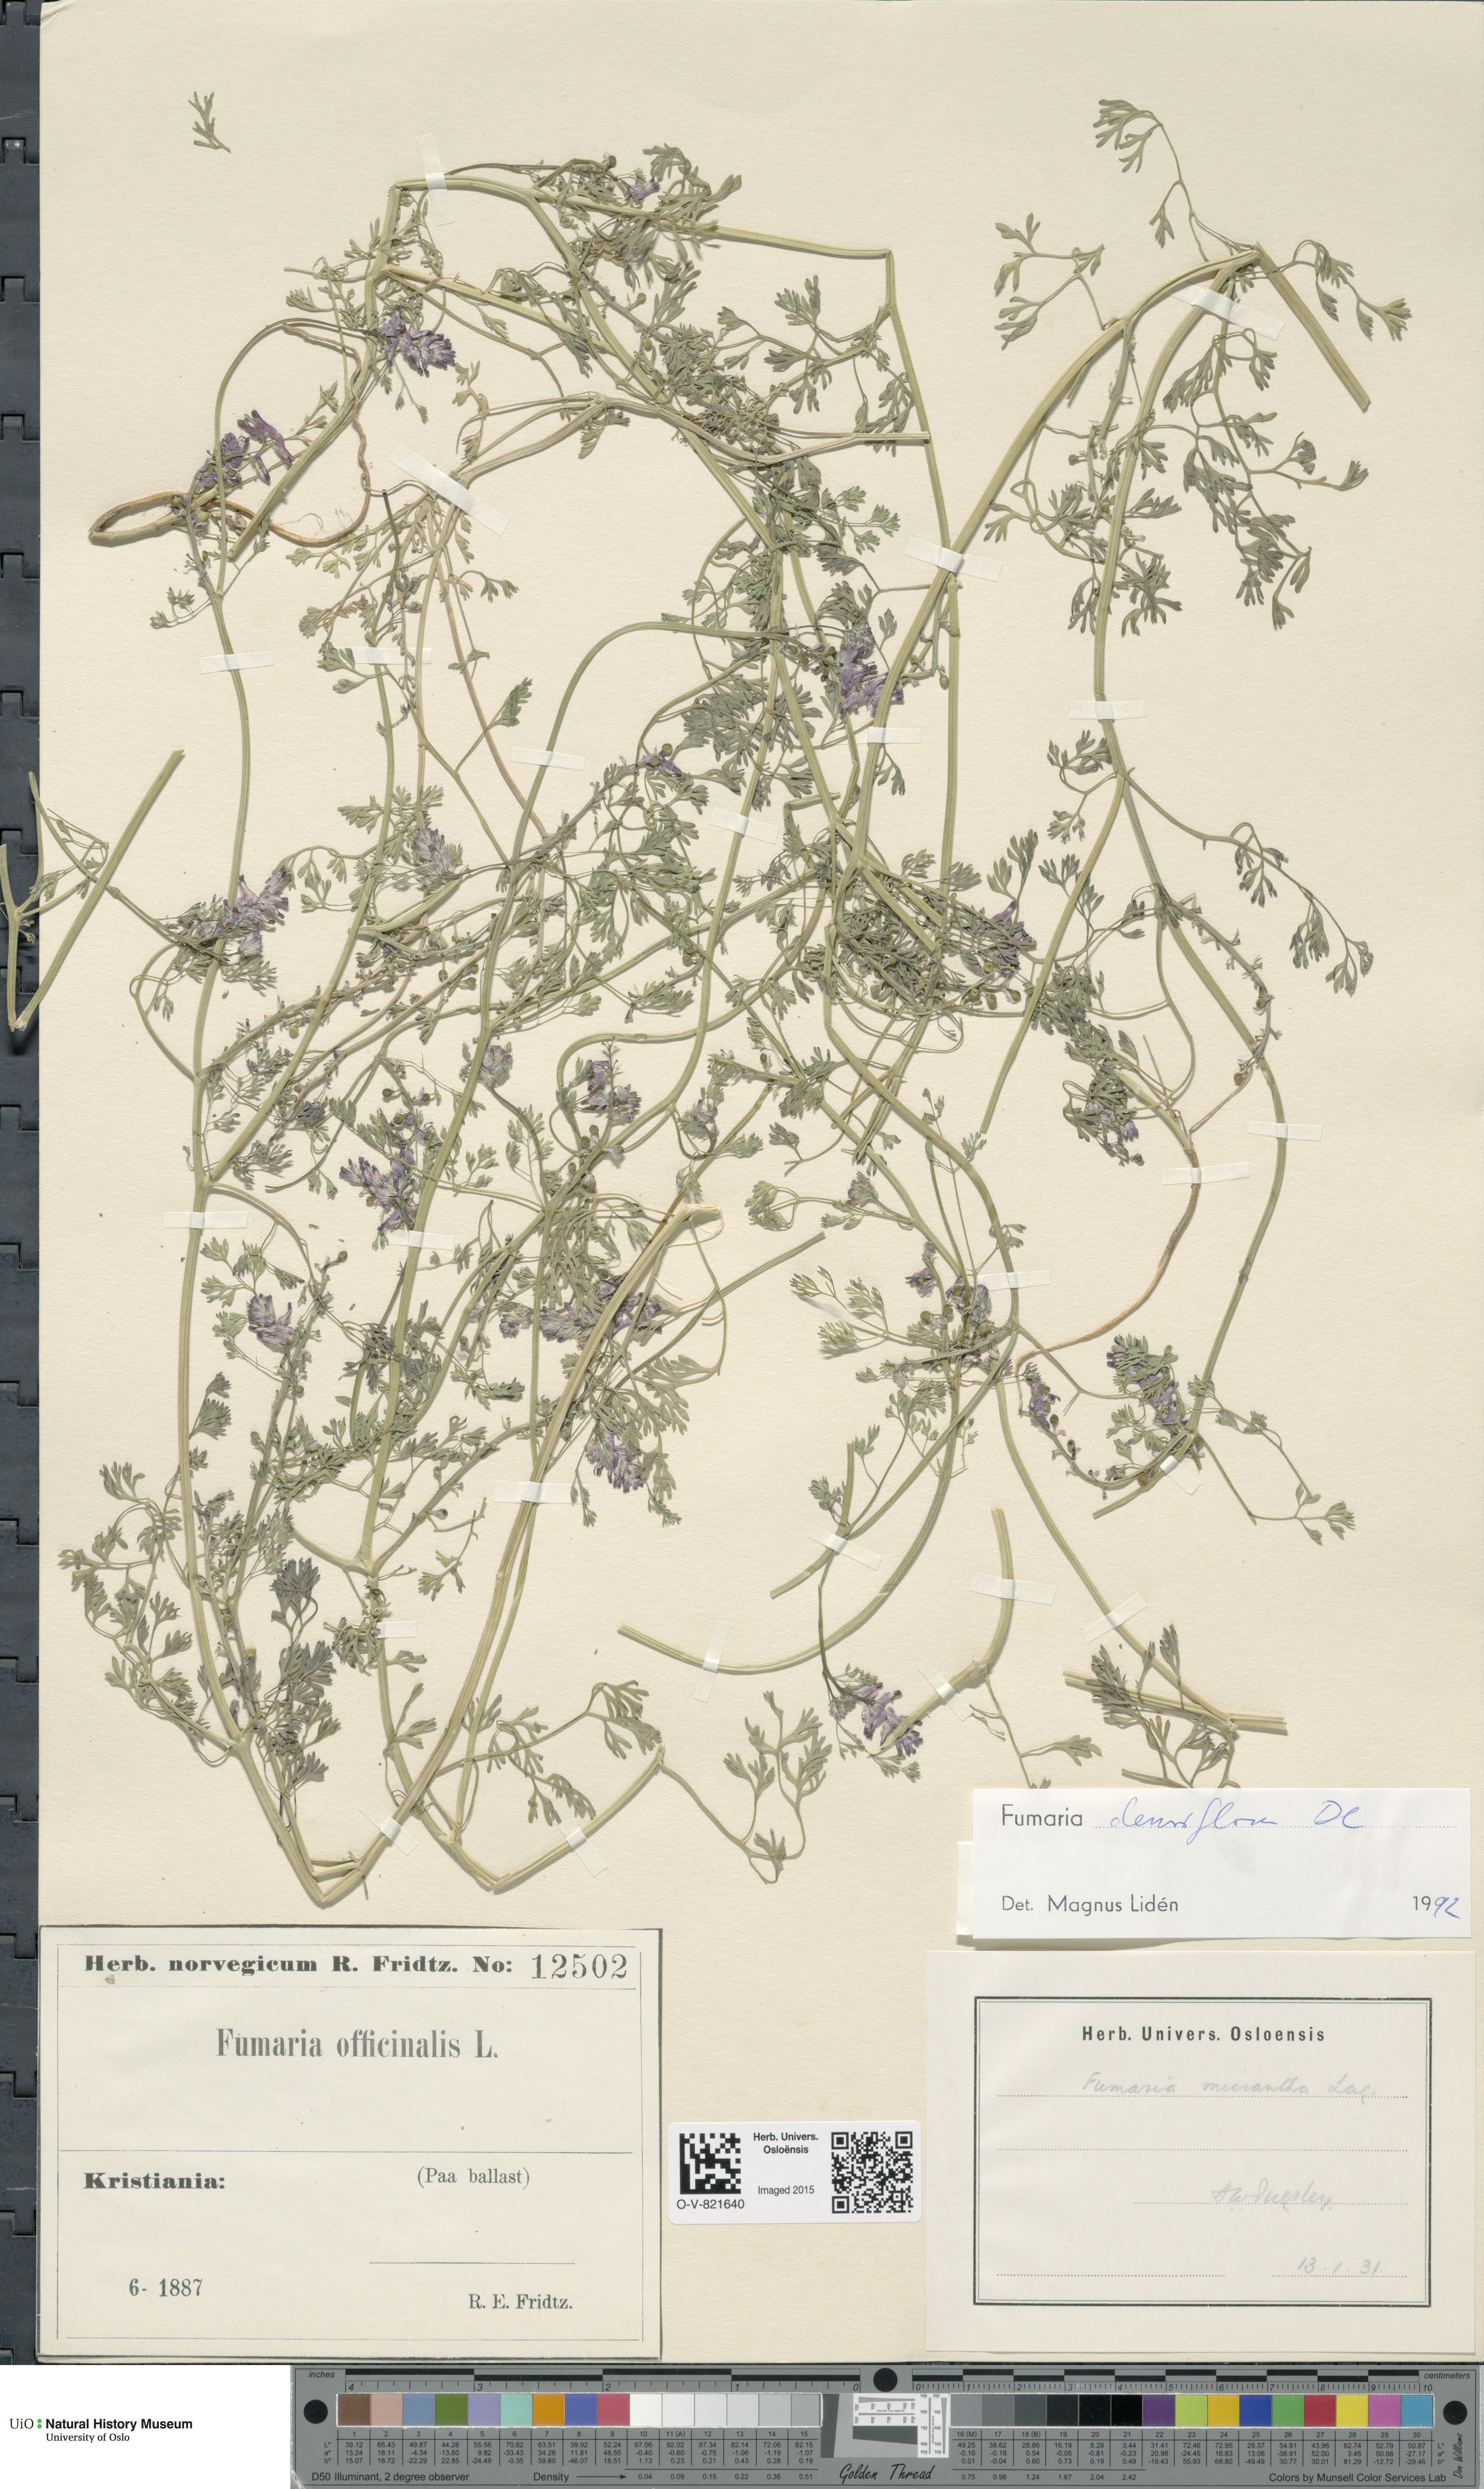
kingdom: Plantae
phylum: Tracheophyta
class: Magnoliopsida
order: Ranunculales
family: Papaveraceae
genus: Fumaria
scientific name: Fumaria densiflora
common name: Dense-flowered fumitory
